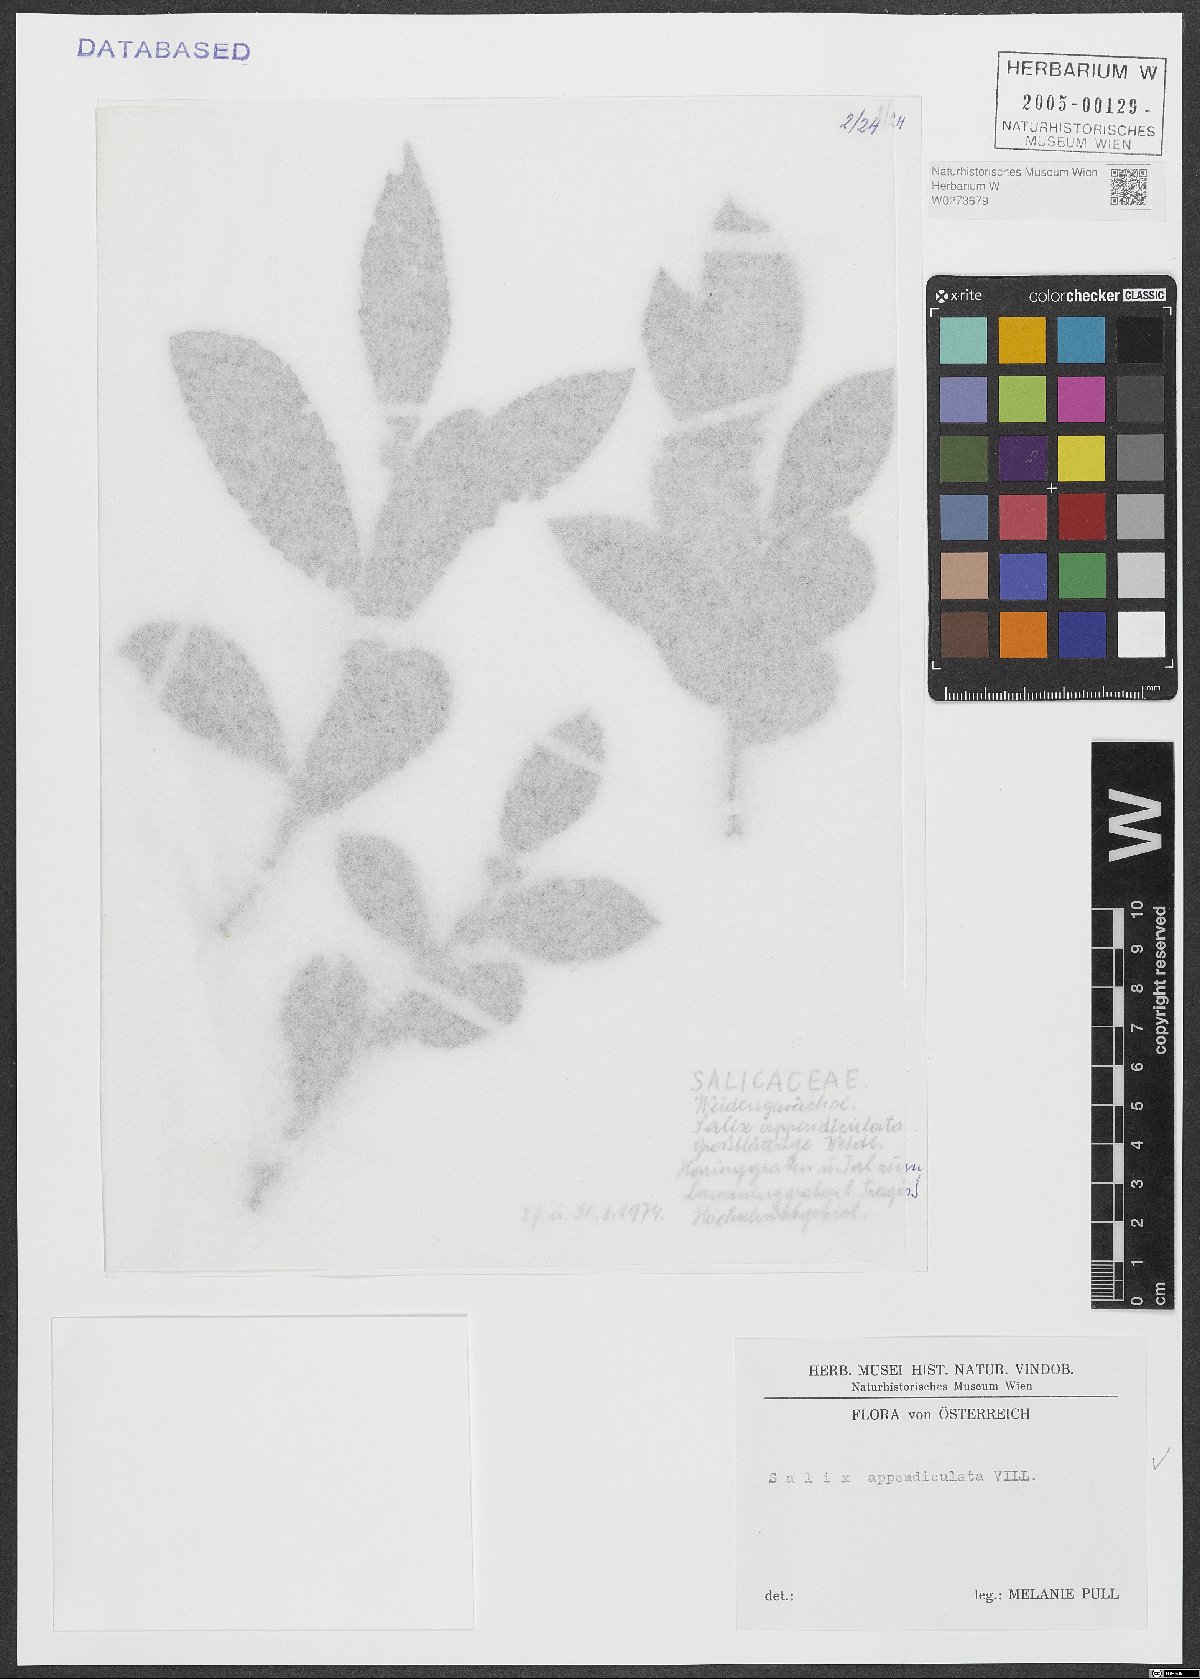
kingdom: Plantae
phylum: Tracheophyta
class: Magnoliopsida
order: Malpighiales
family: Salicaceae
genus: Salix
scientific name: Salix appendiculata
